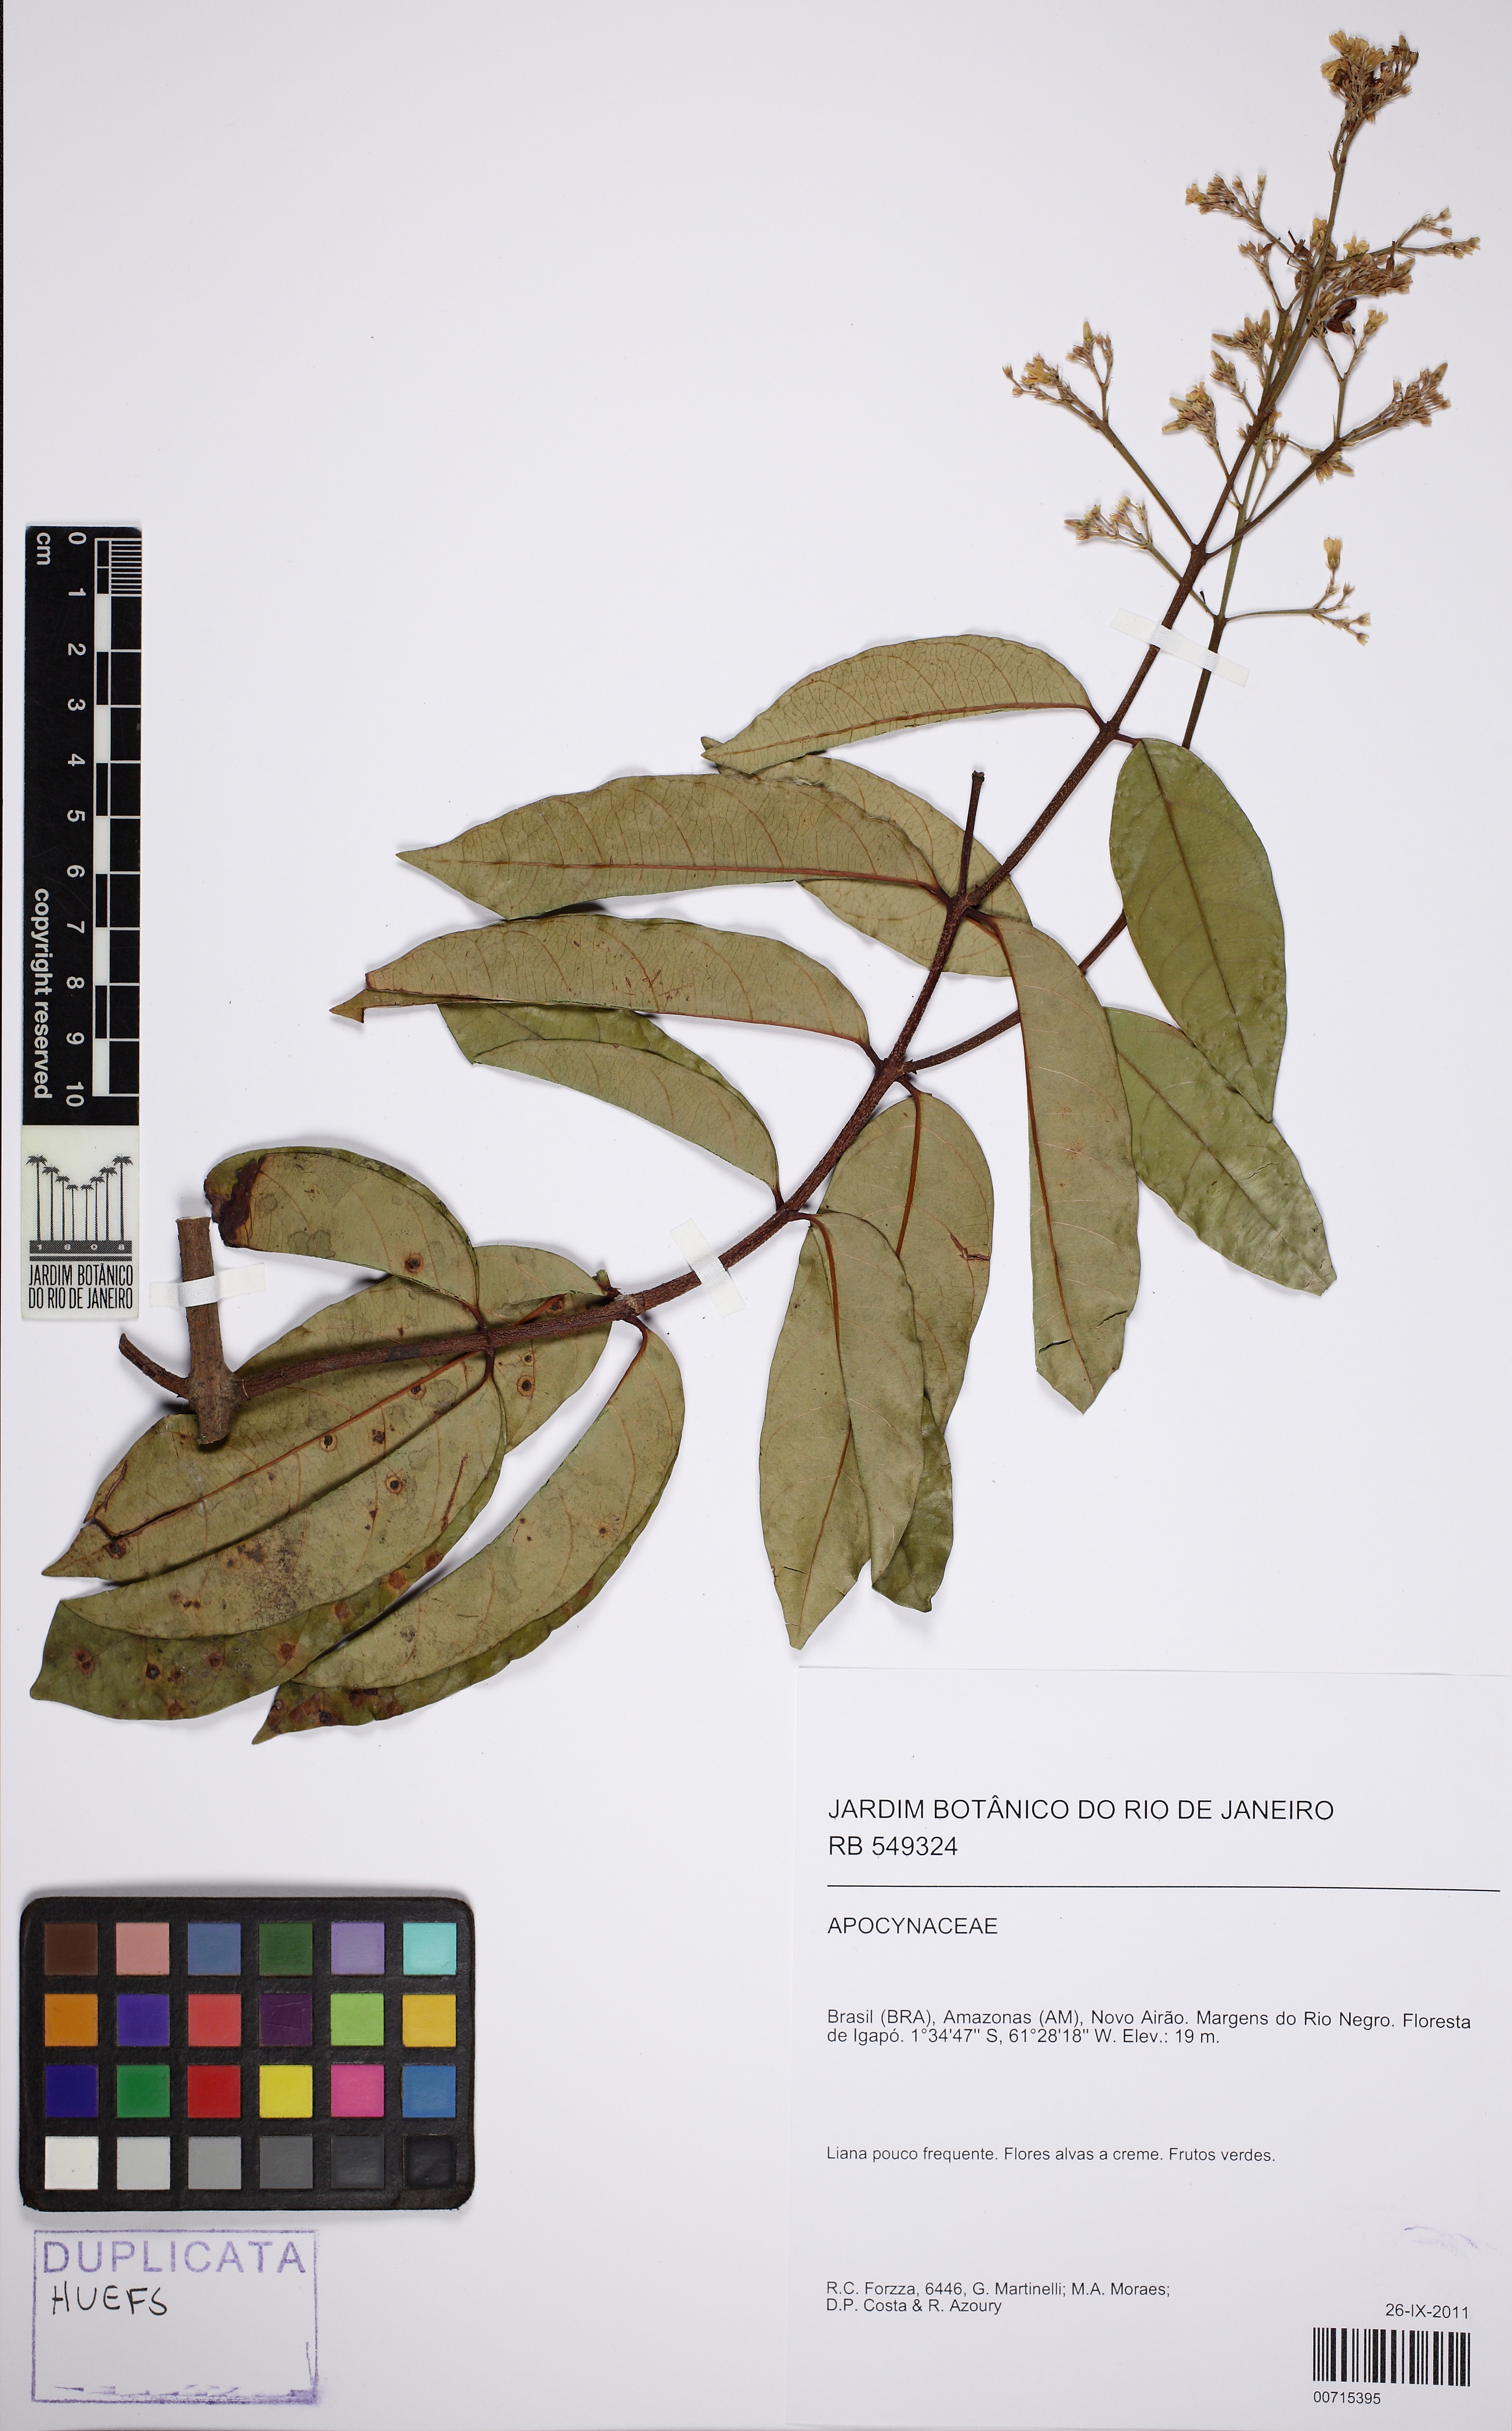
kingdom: Plantae
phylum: Tracheophyta
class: Magnoliopsida
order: Gentianales
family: Apocynaceae
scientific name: Apocynaceae
